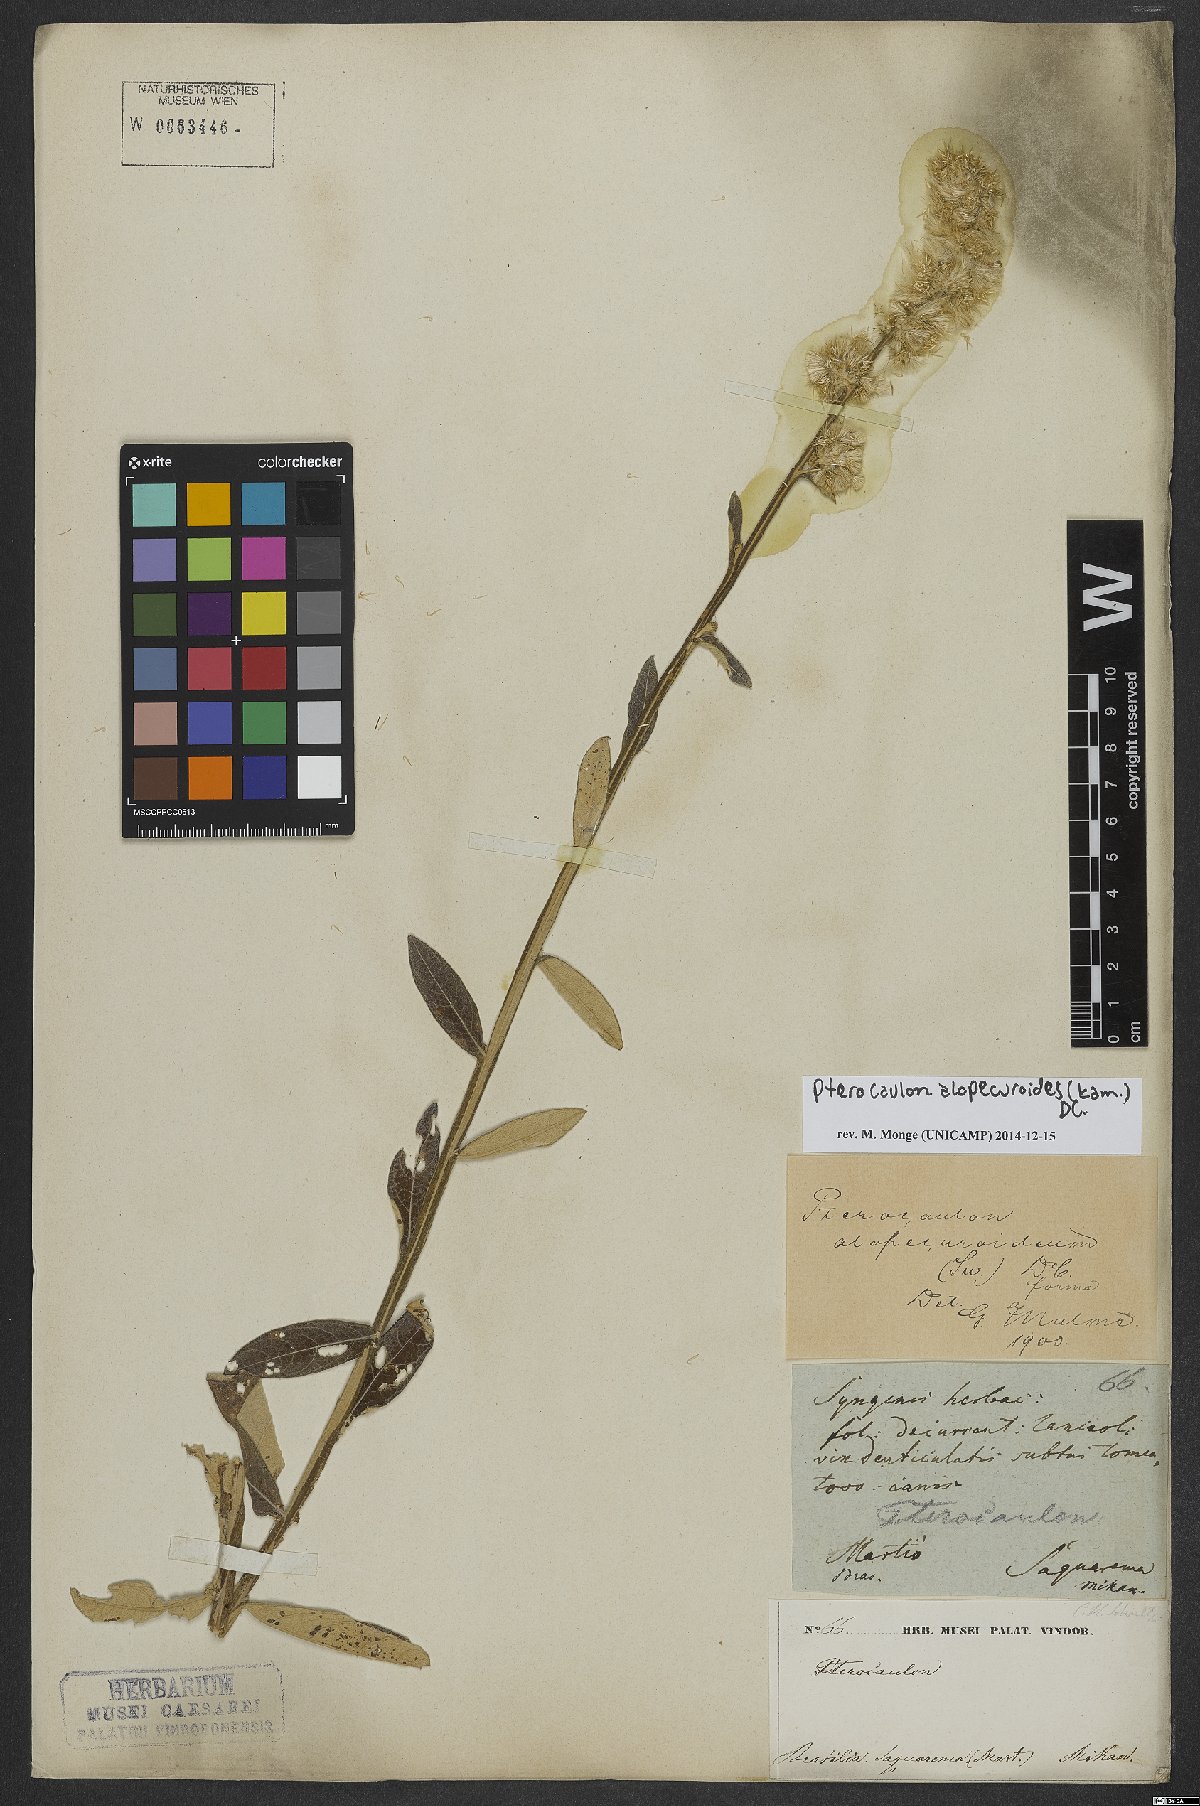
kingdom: Plantae
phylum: Tracheophyta
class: Magnoliopsida
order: Asterales
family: Asteraceae
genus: Pterocaulon
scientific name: Pterocaulon alopecuroides
